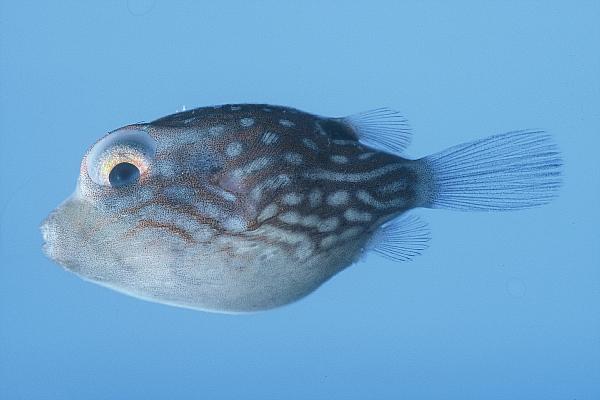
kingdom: Animalia
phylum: Chordata
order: Tetraodontiformes
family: Tetraodontidae
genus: Canthigaster
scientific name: Canthigaster solandri
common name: False-eye toby
